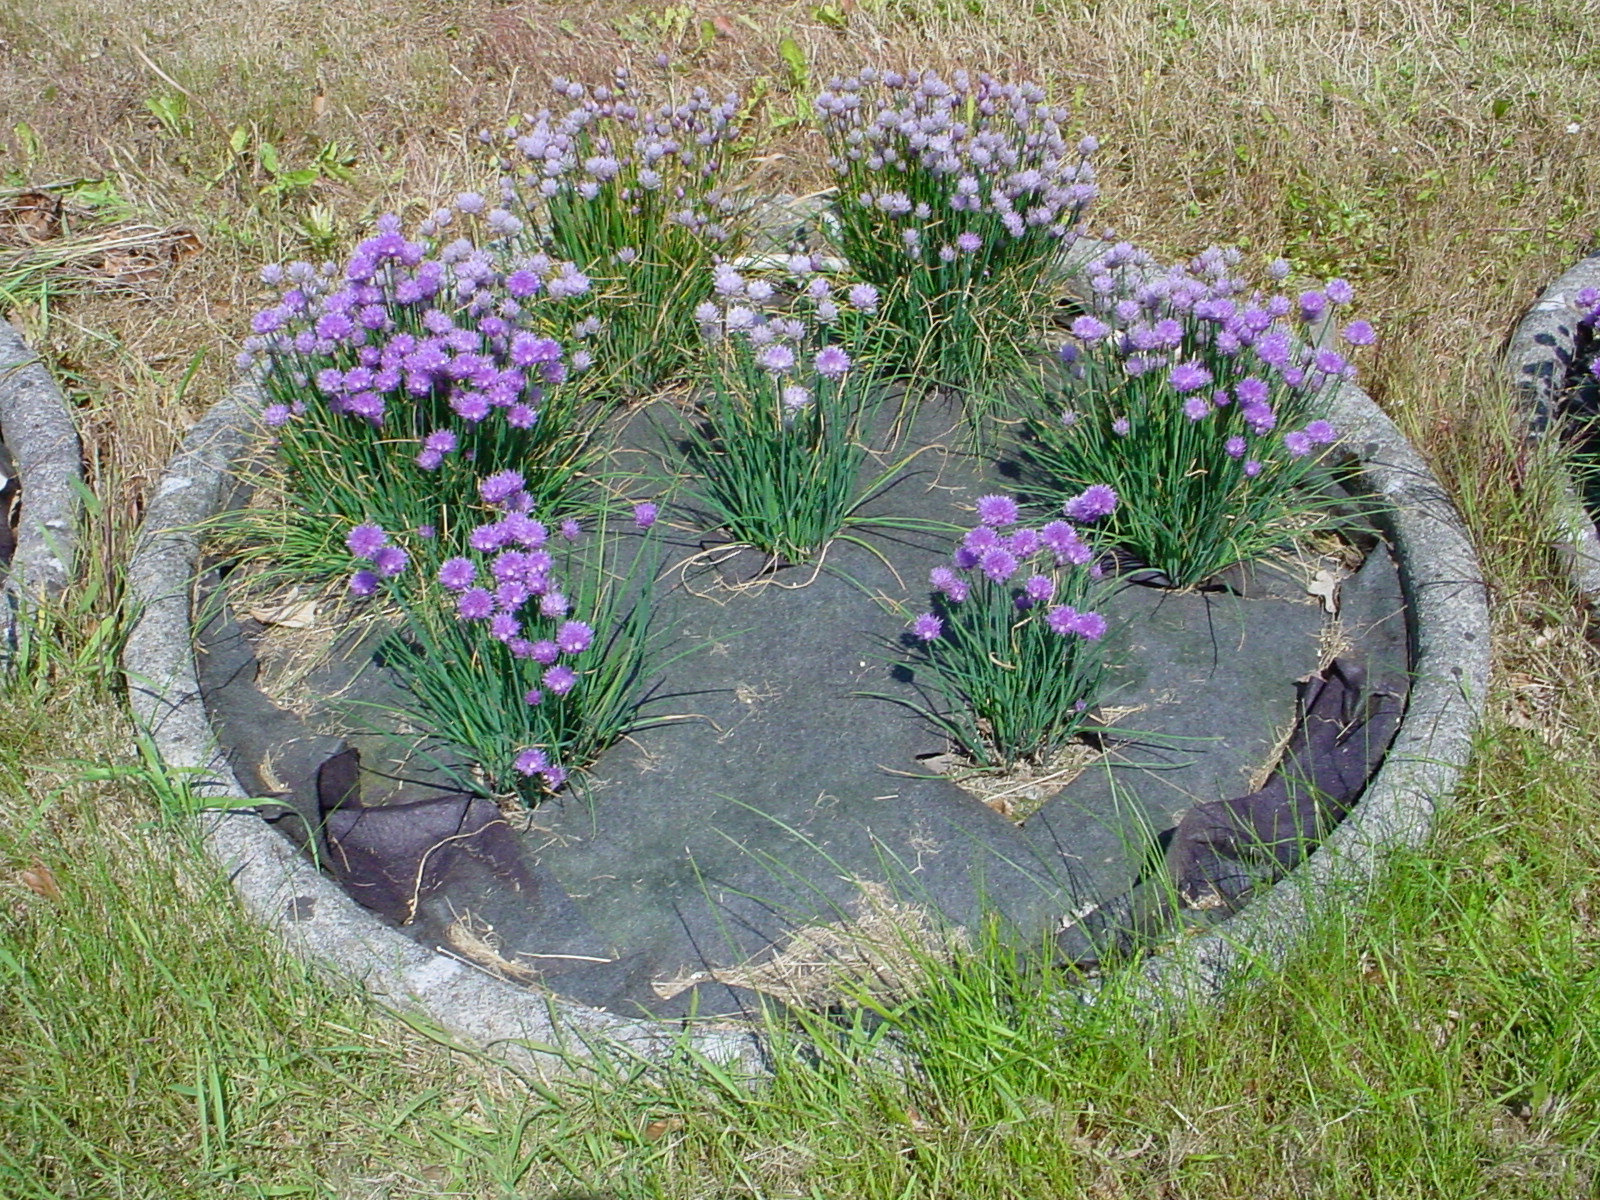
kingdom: Plantae
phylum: Tracheophyta
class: Liliopsida
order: Asparagales
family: Amaryllidaceae
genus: Allium
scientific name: Allium schoenoprasum
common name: Chives
